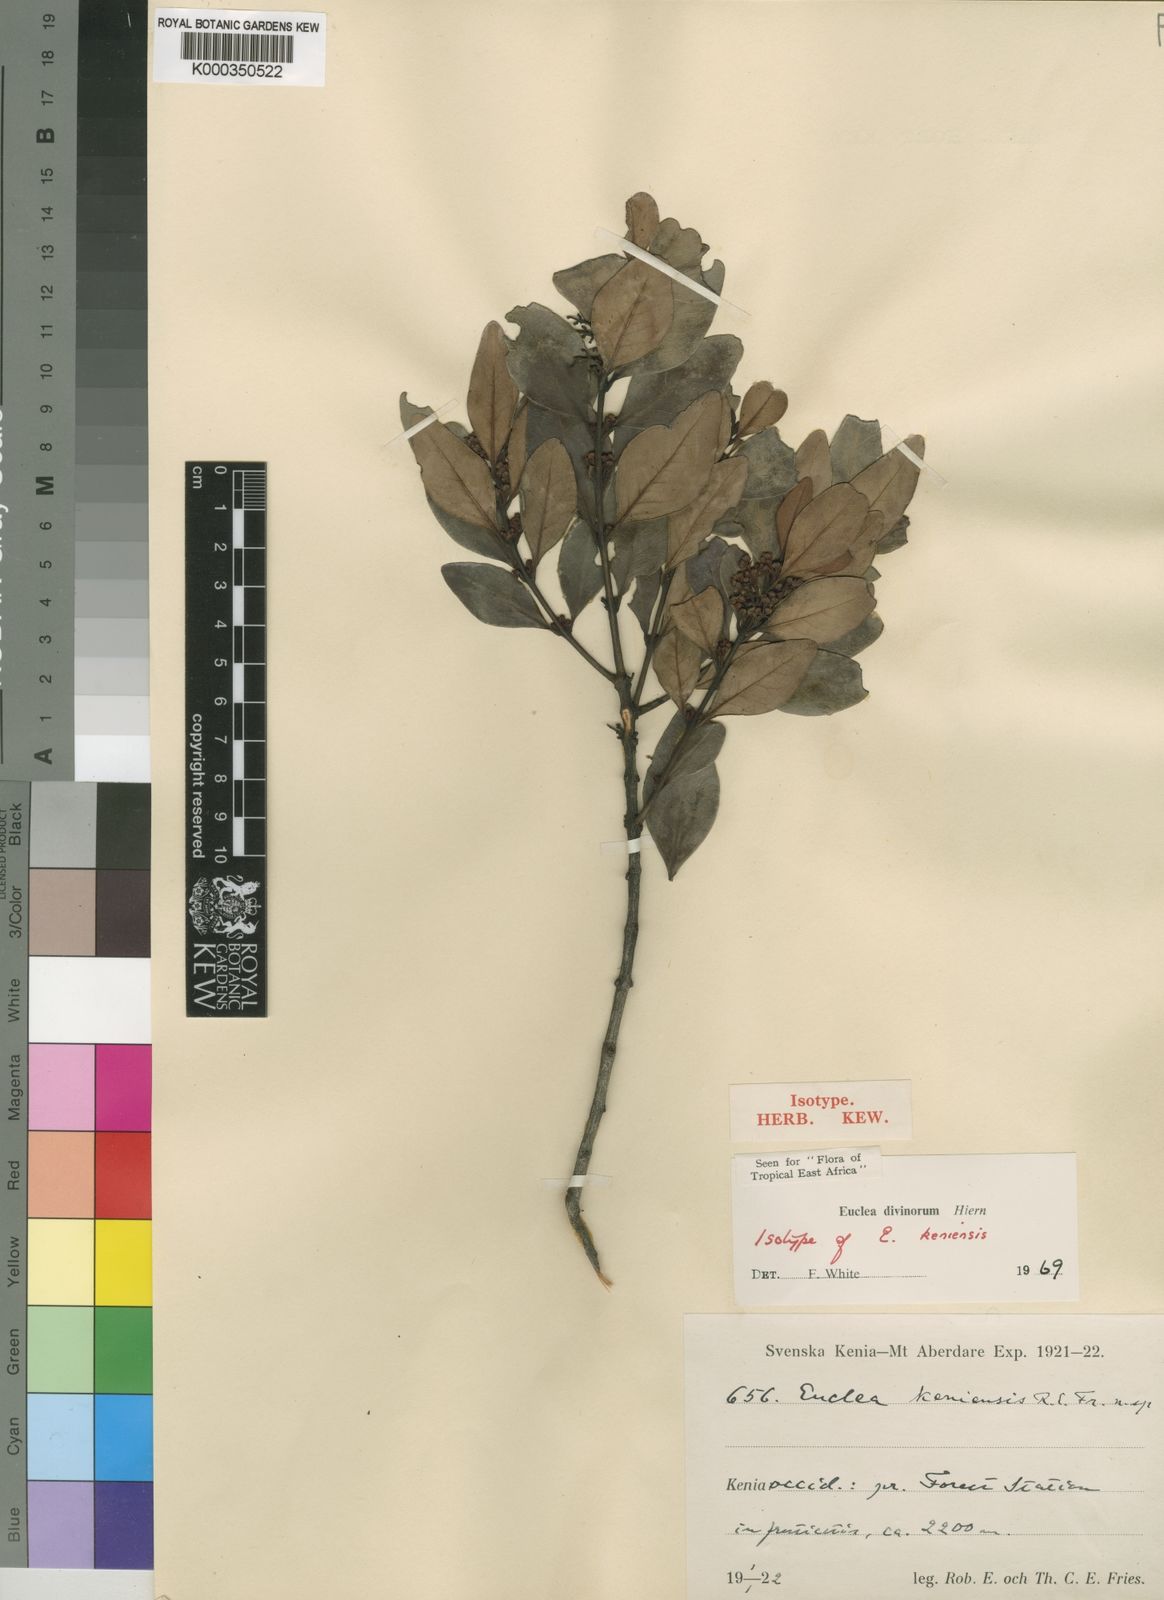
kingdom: Plantae
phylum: Tracheophyta
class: Magnoliopsida
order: Ericales
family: Ebenaceae
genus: Euclea
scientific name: Euclea divinorum
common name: Diamond-leaved euclea
